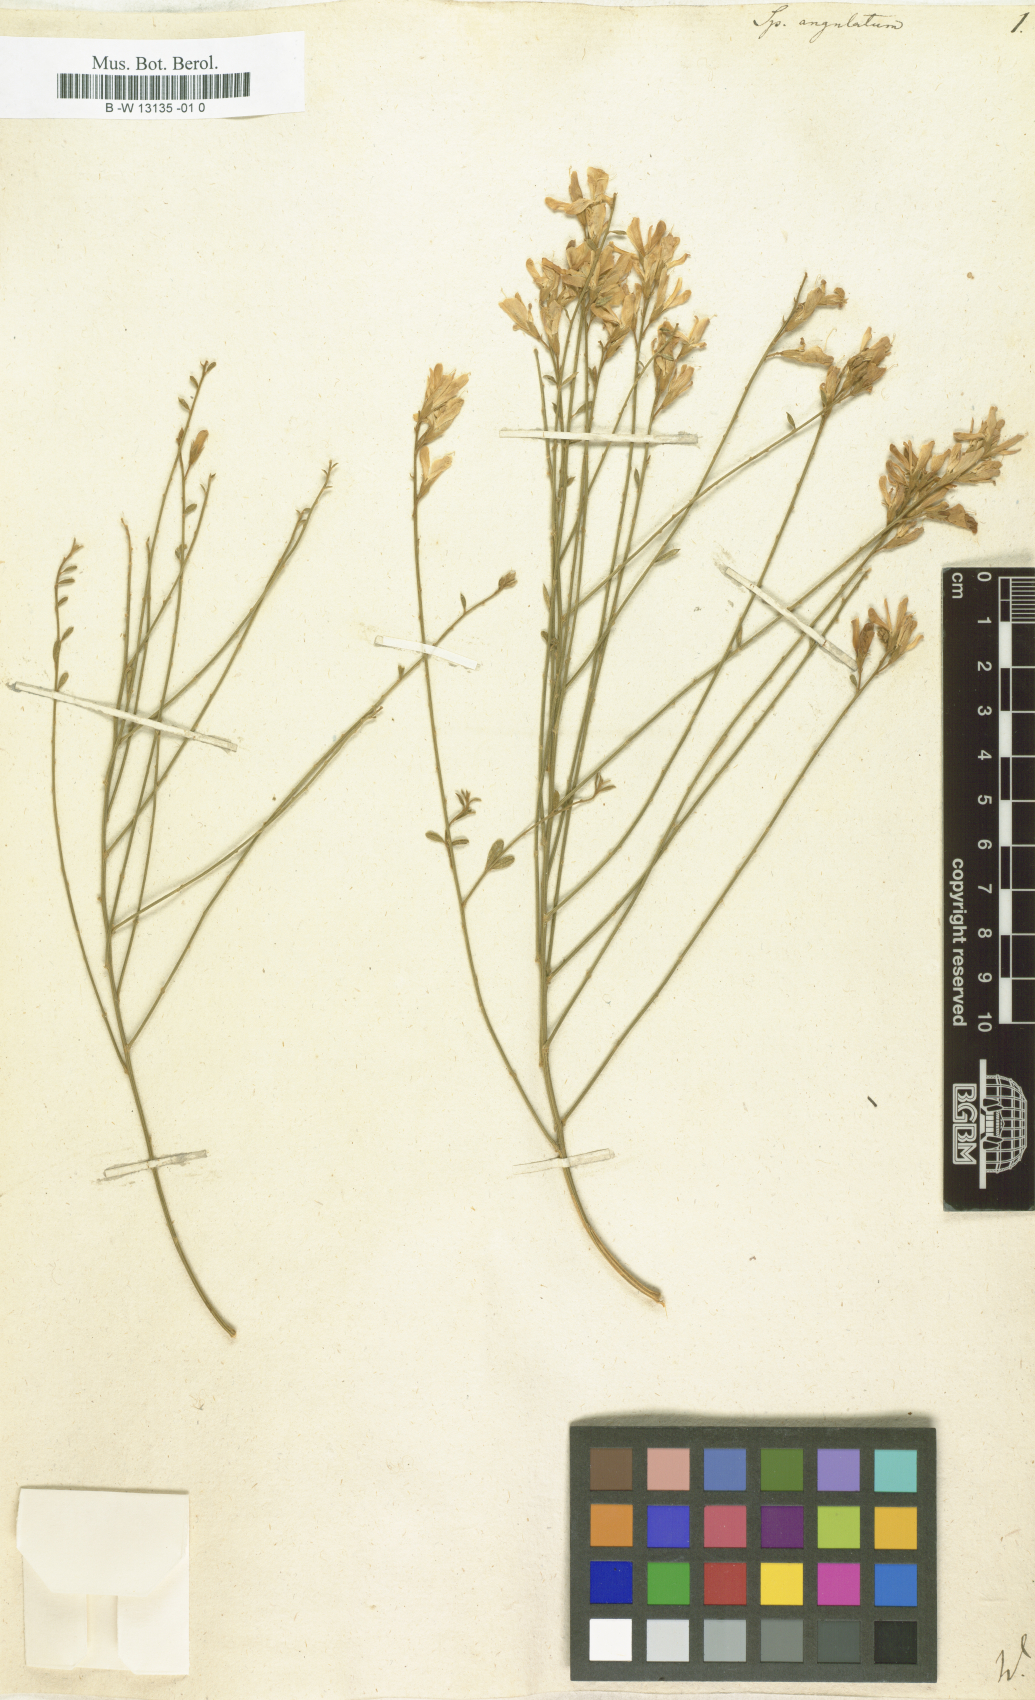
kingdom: Plantae
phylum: Tracheophyta
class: Magnoliopsida
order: Fabales
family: Fabaceae
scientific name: Fabaceae
